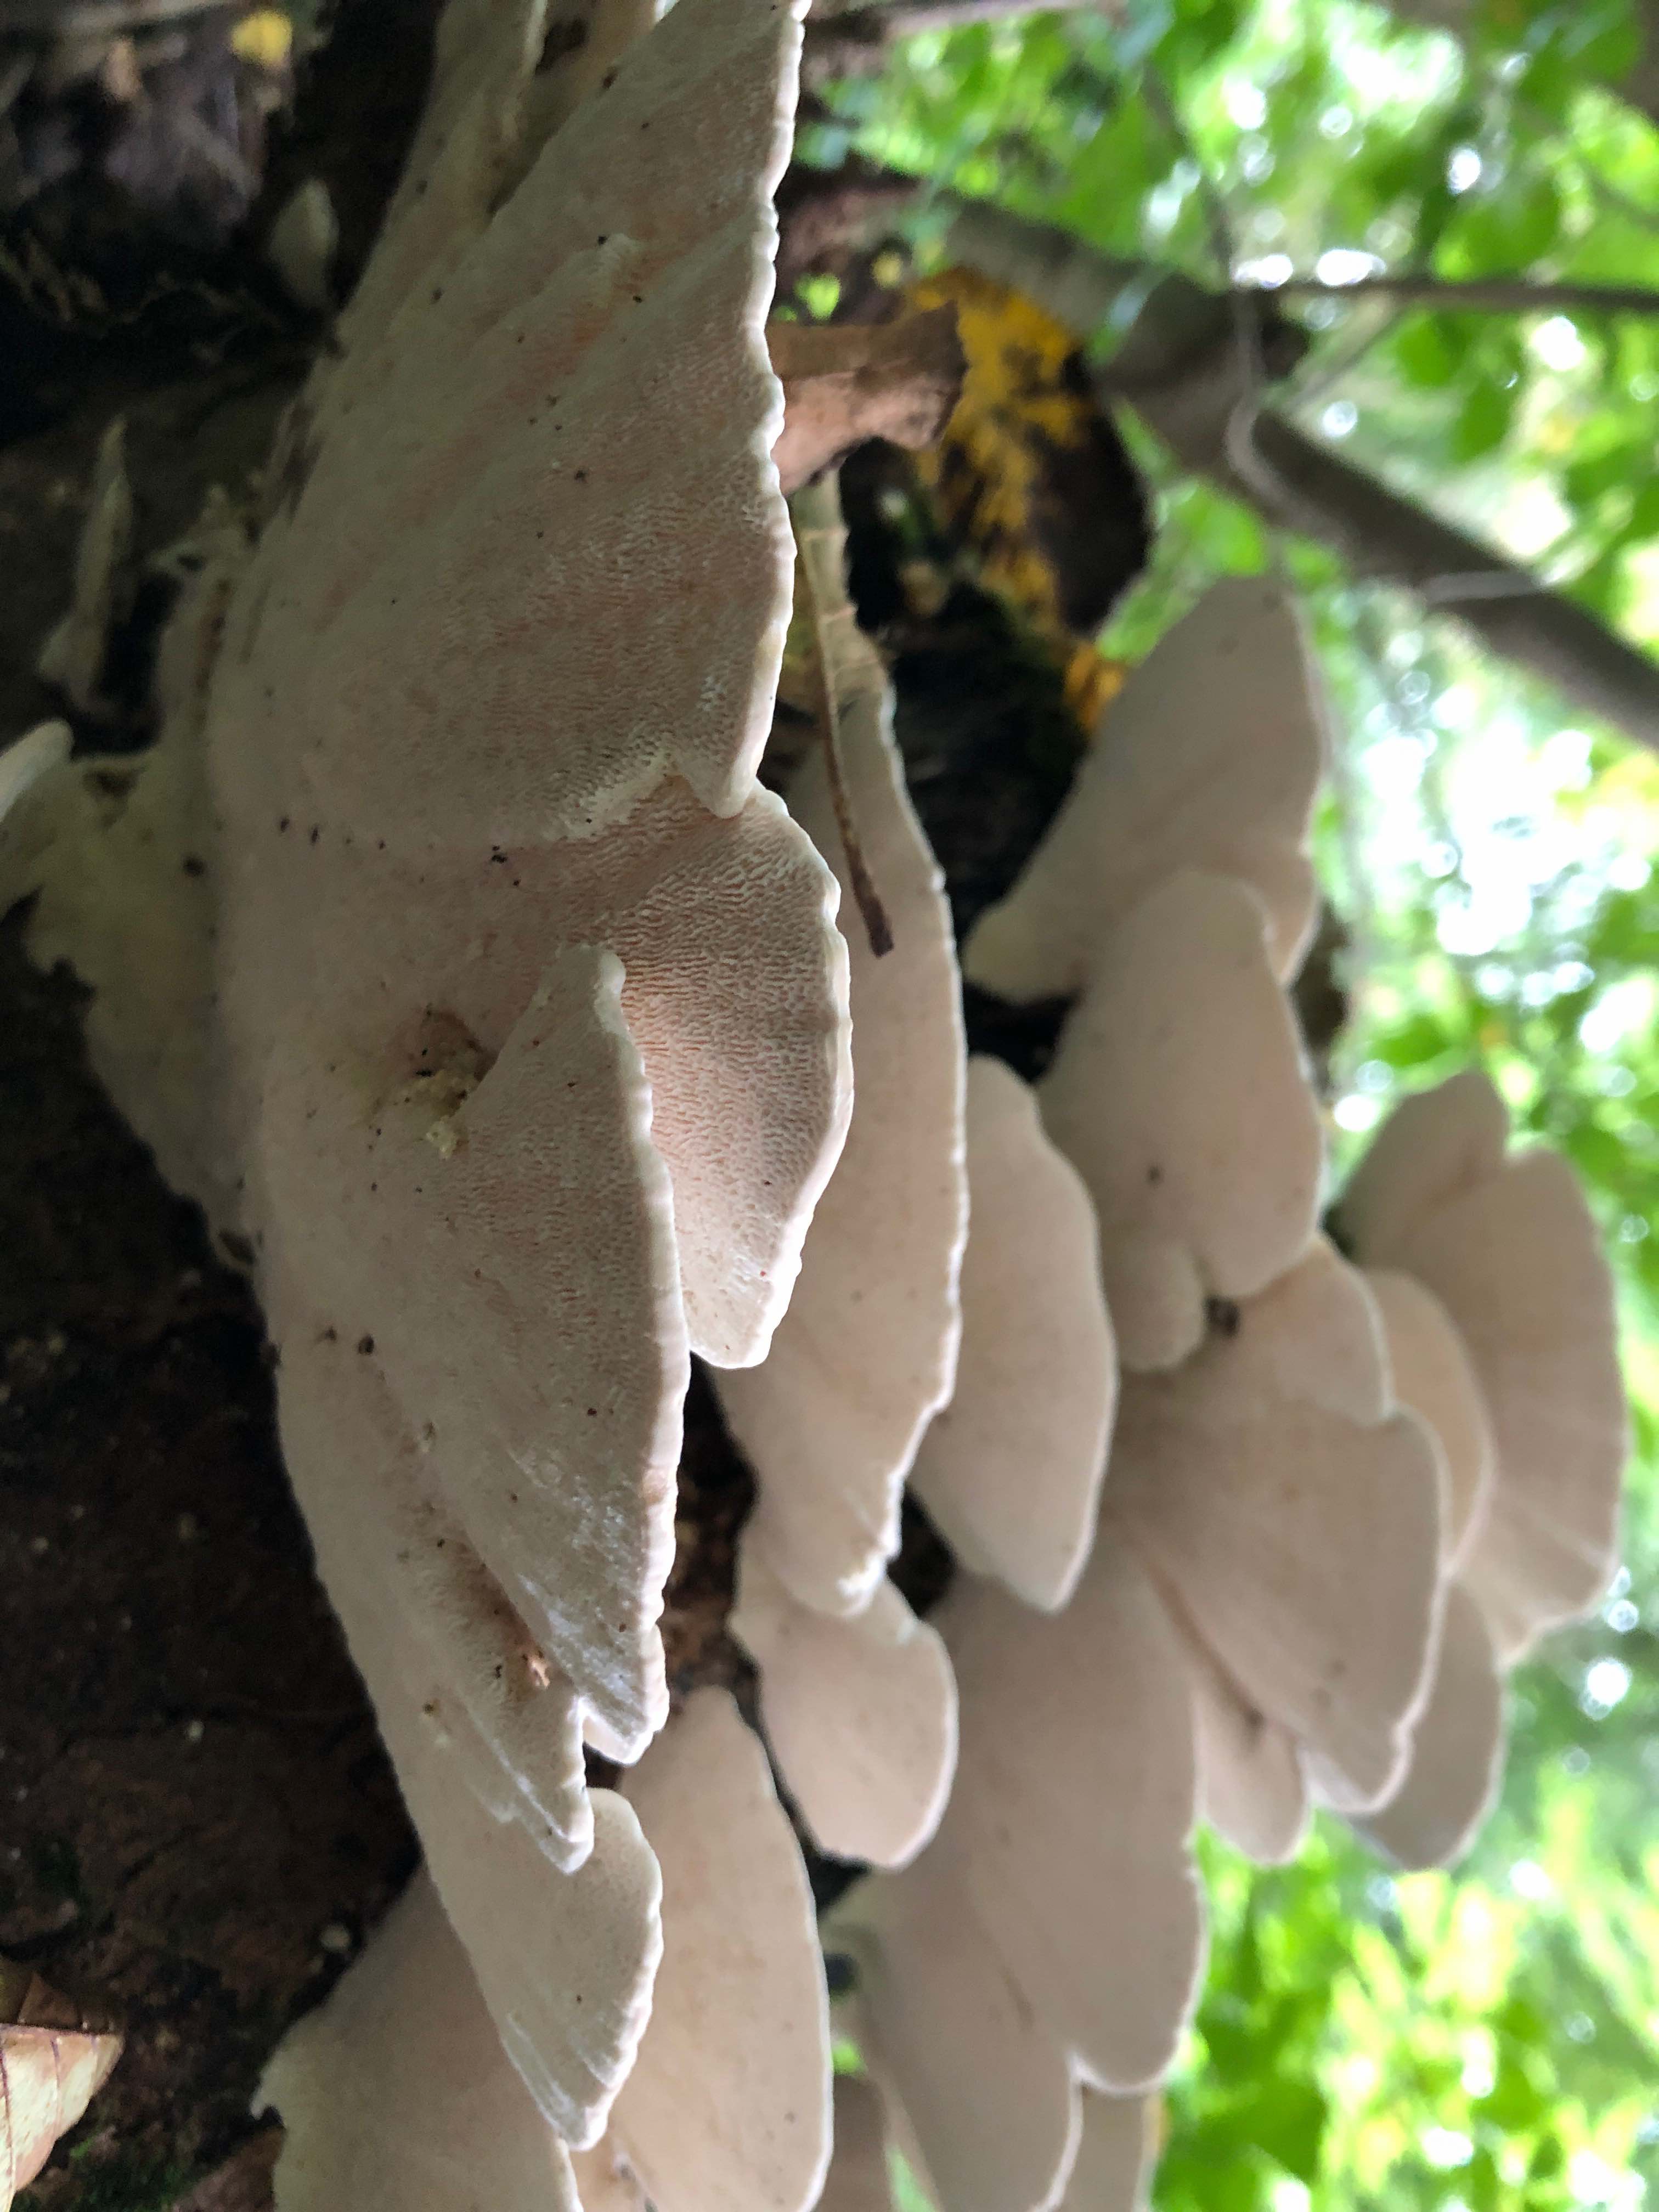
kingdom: Fungi
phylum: Basidiomycota
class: Agaricomycetes
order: Polyporales
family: Polyporaceae
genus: Trametes
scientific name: Trametes gibbosa
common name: puklet læderporesvamp
